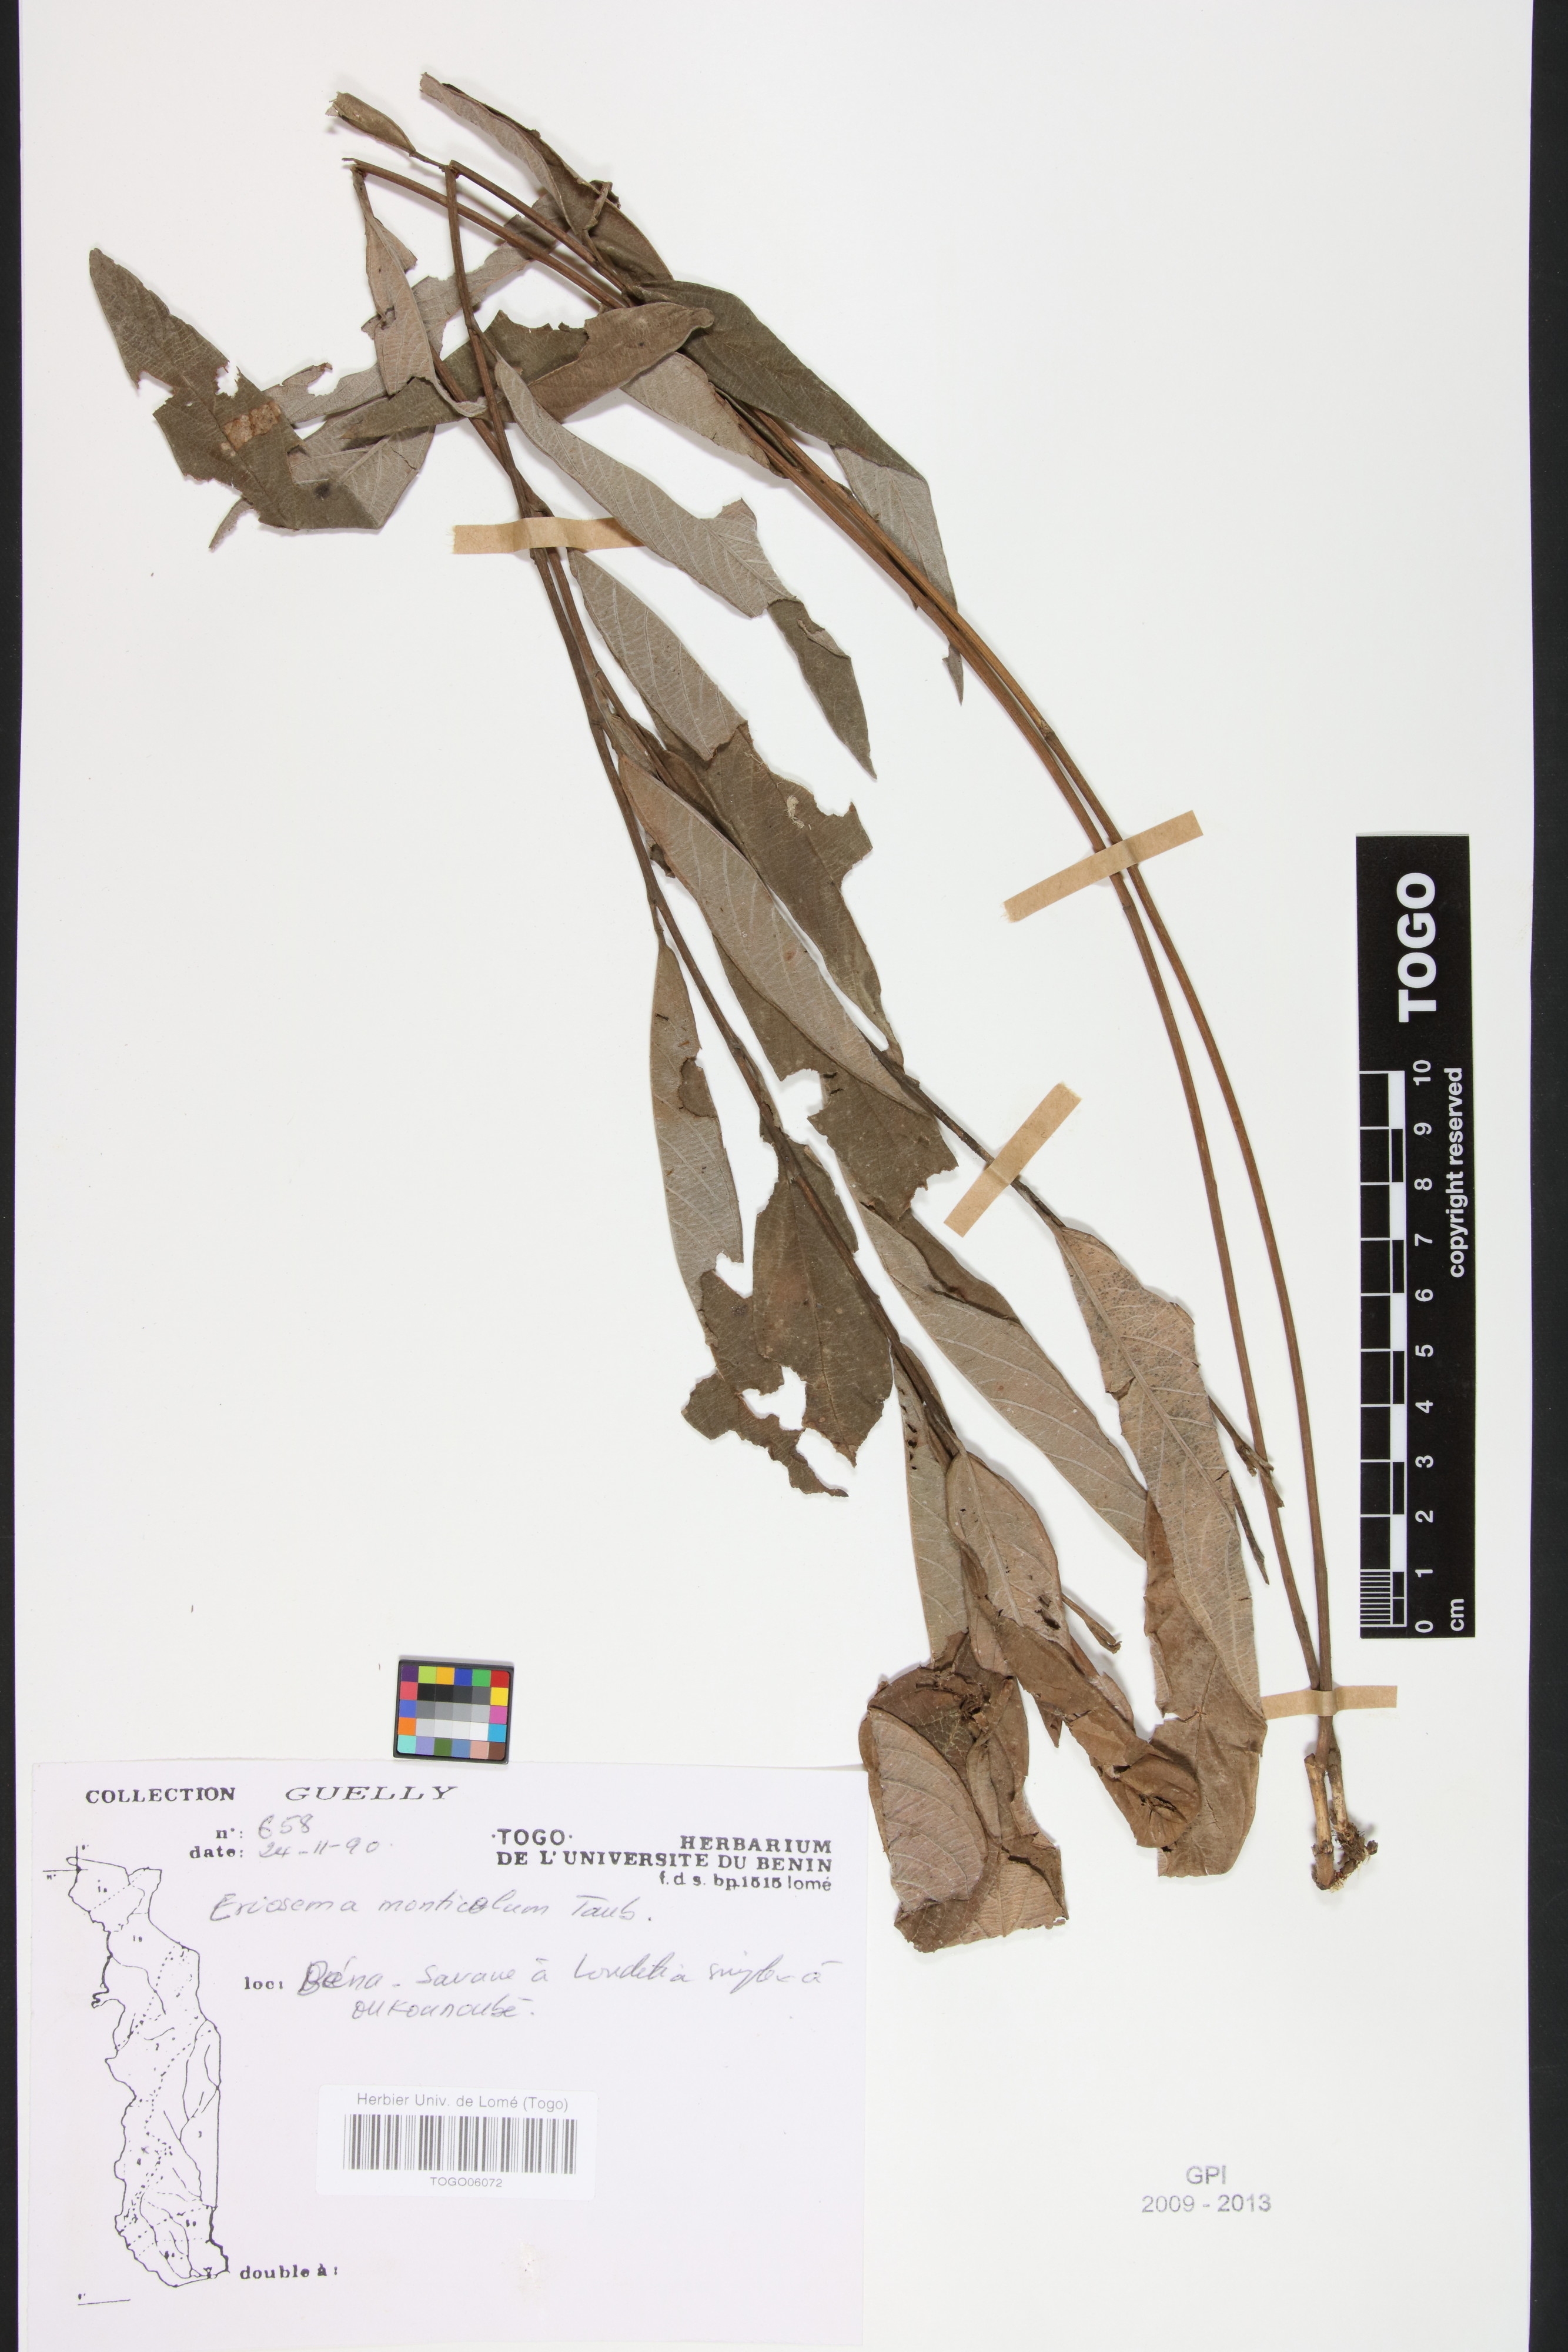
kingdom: Plantae
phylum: Tracheophyta
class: Magnoliopsida
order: Fabales
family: Fabaceae
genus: Eriosema
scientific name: Eriosema monticola
